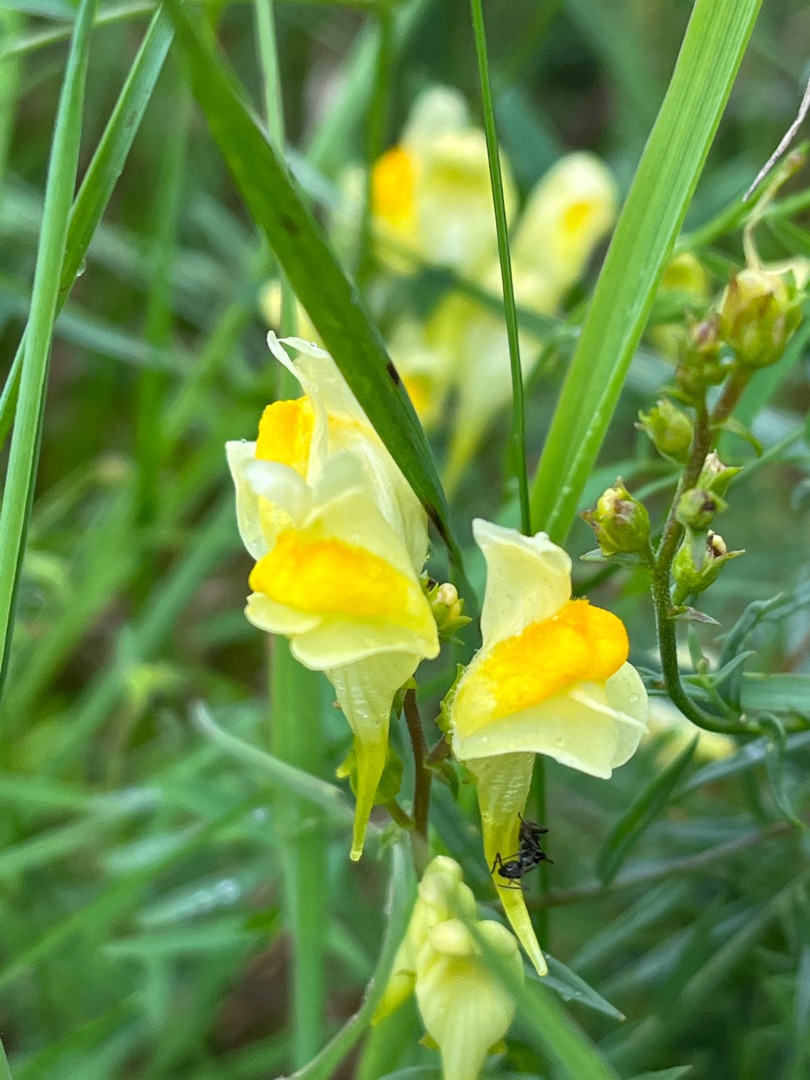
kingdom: Plantae
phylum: Tracheophyta
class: Magnoliopsida
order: Lamiales
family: Plantaginaceae
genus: Linaria
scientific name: Linaria vulgaris
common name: Almindelig torskemund
